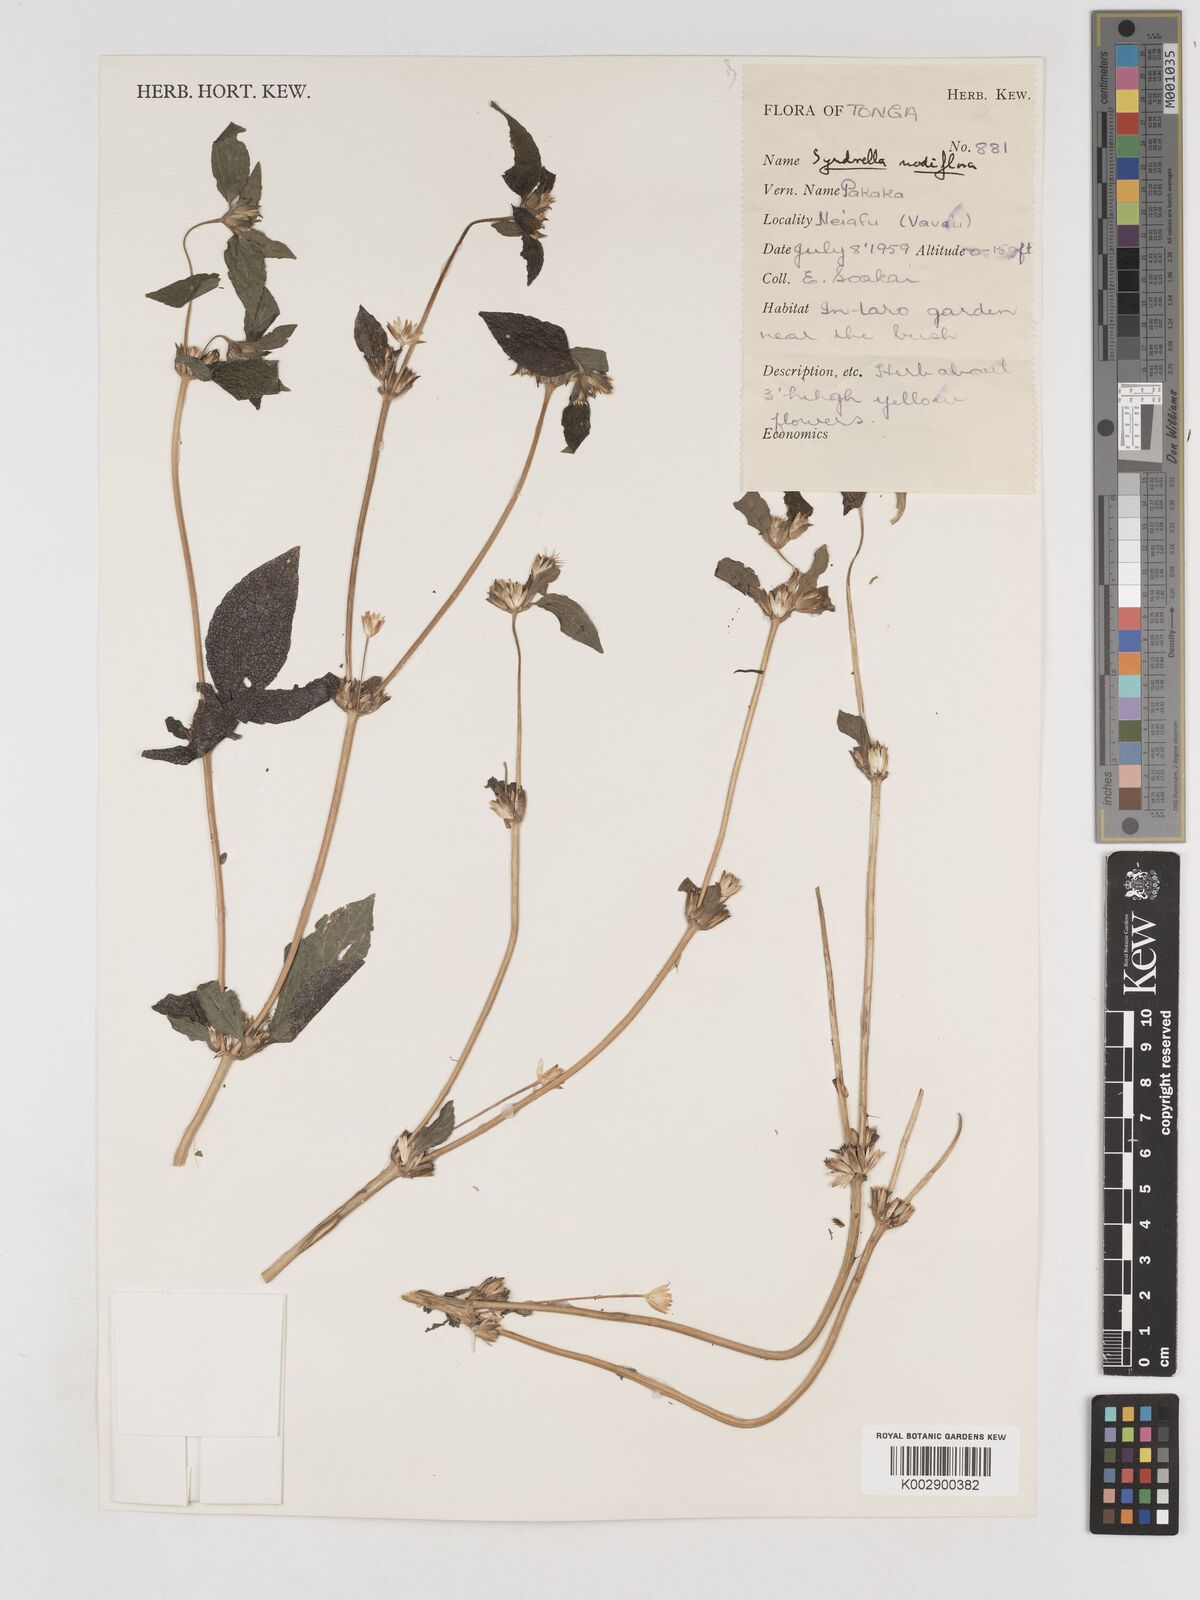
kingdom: Plantae
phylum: Tracheophyta
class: Magnoliopsida
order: Asterales
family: Asteraceae
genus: Synedrella
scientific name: Synedrella nodiflora
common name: Nodeweed
